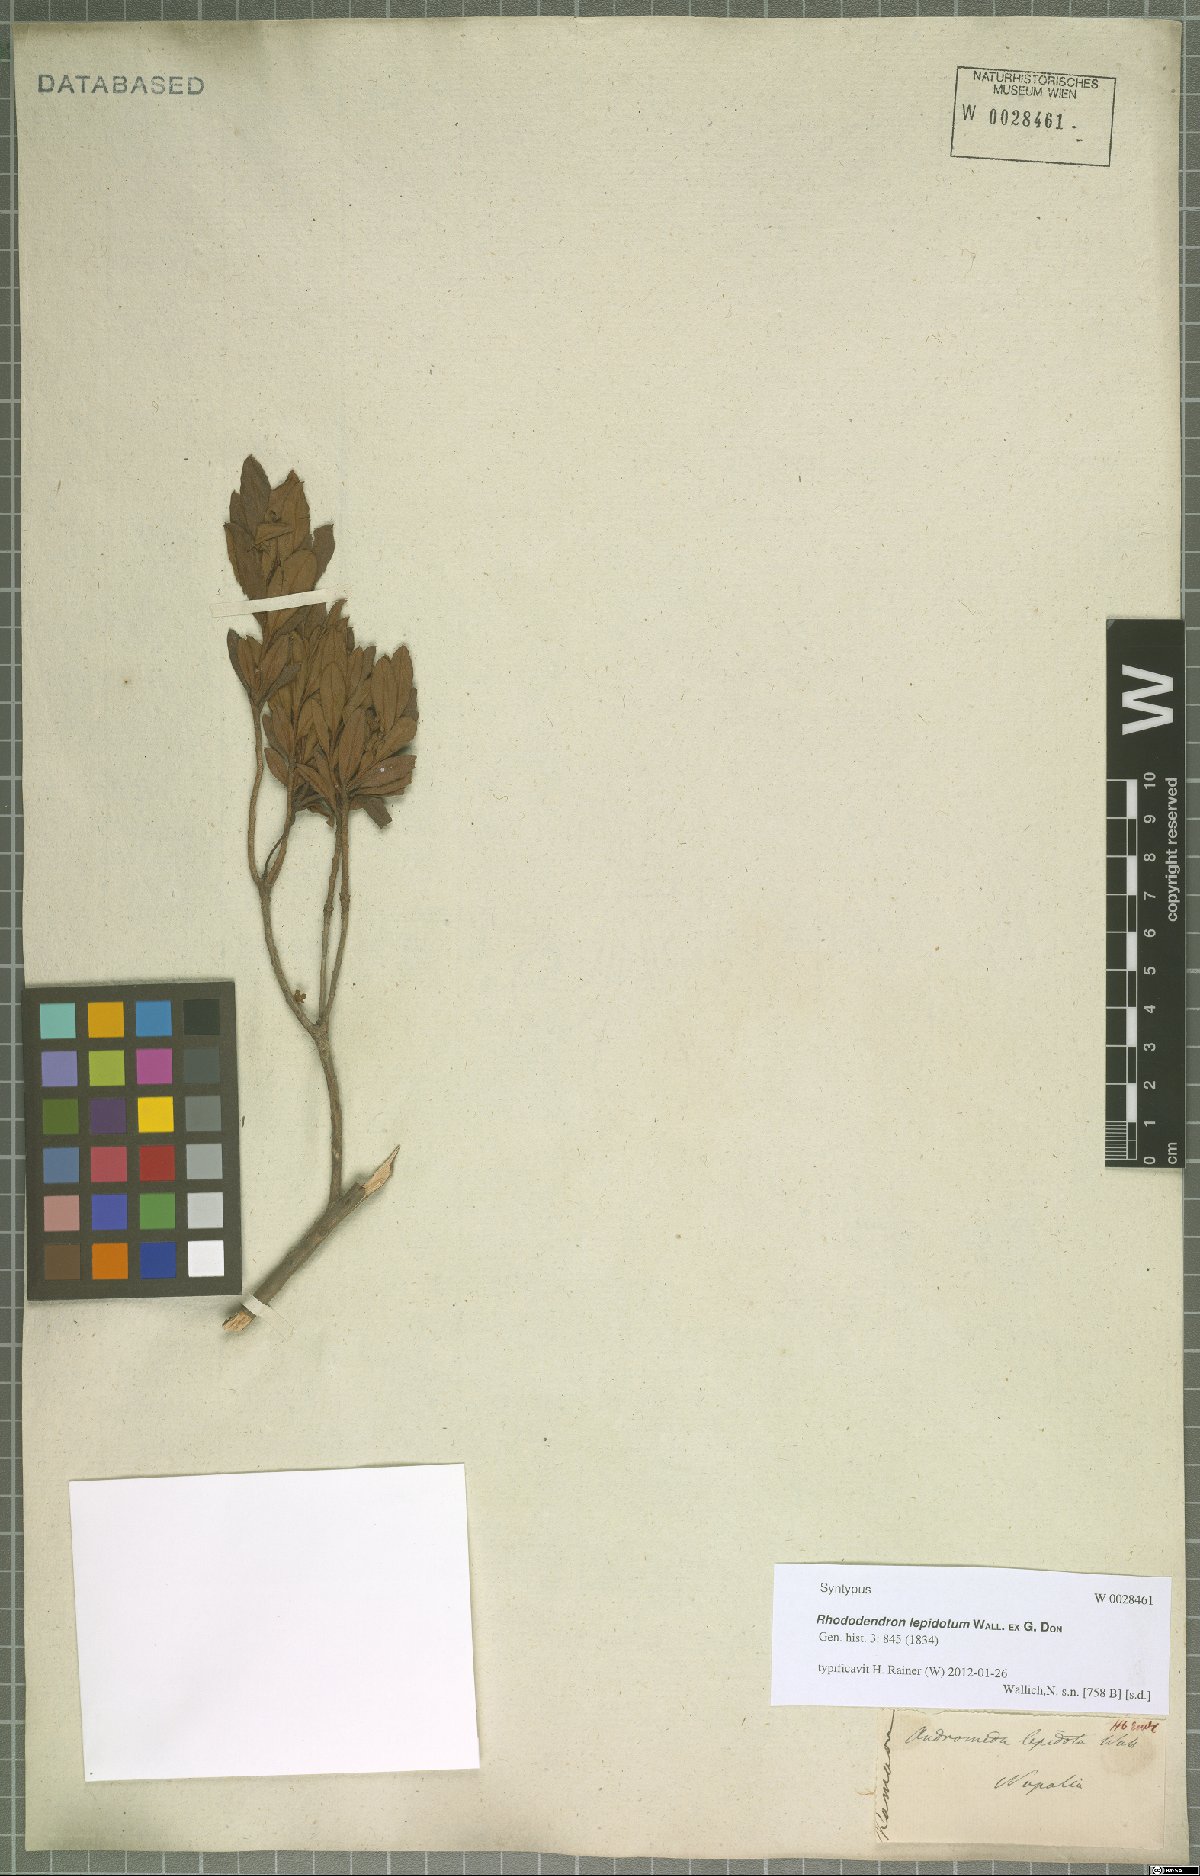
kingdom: Plantae
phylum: Tracheophyta
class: Magnoliopsida
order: Ericales
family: Ericaceae
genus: Rhododendron
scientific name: Rhododendron lepidotum
